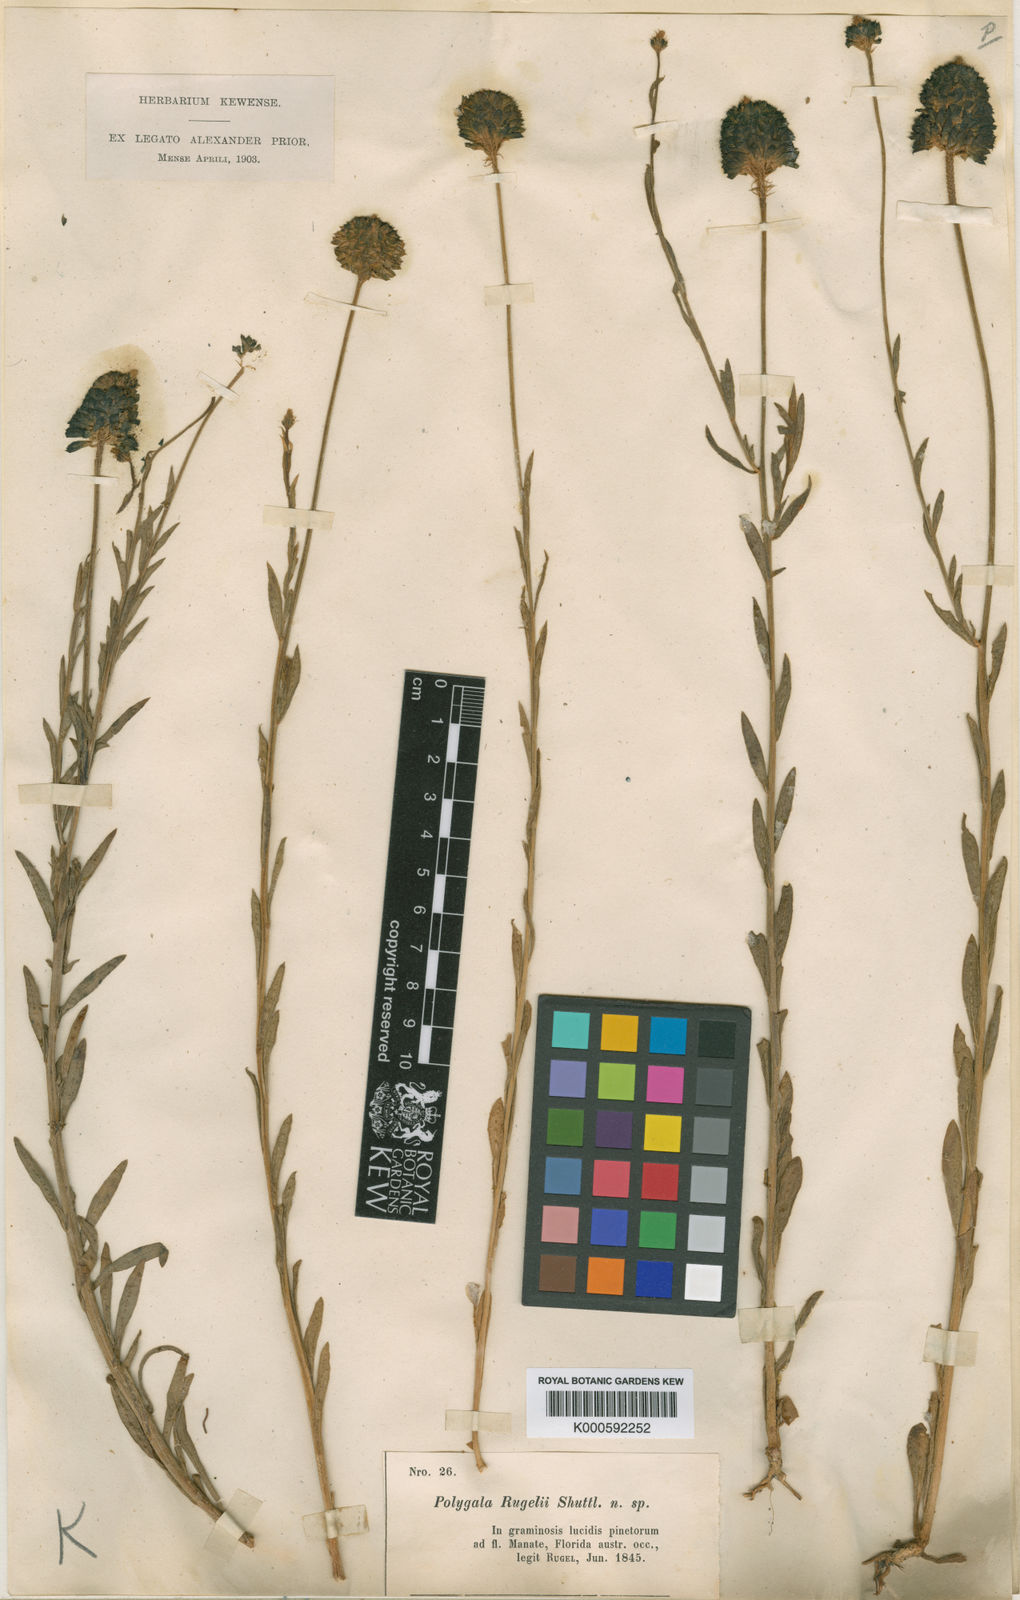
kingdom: Plantae
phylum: Tracheophyta
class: Magnoliopsida
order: Fabales
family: Polygalaceae
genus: Polygala
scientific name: Polygala
